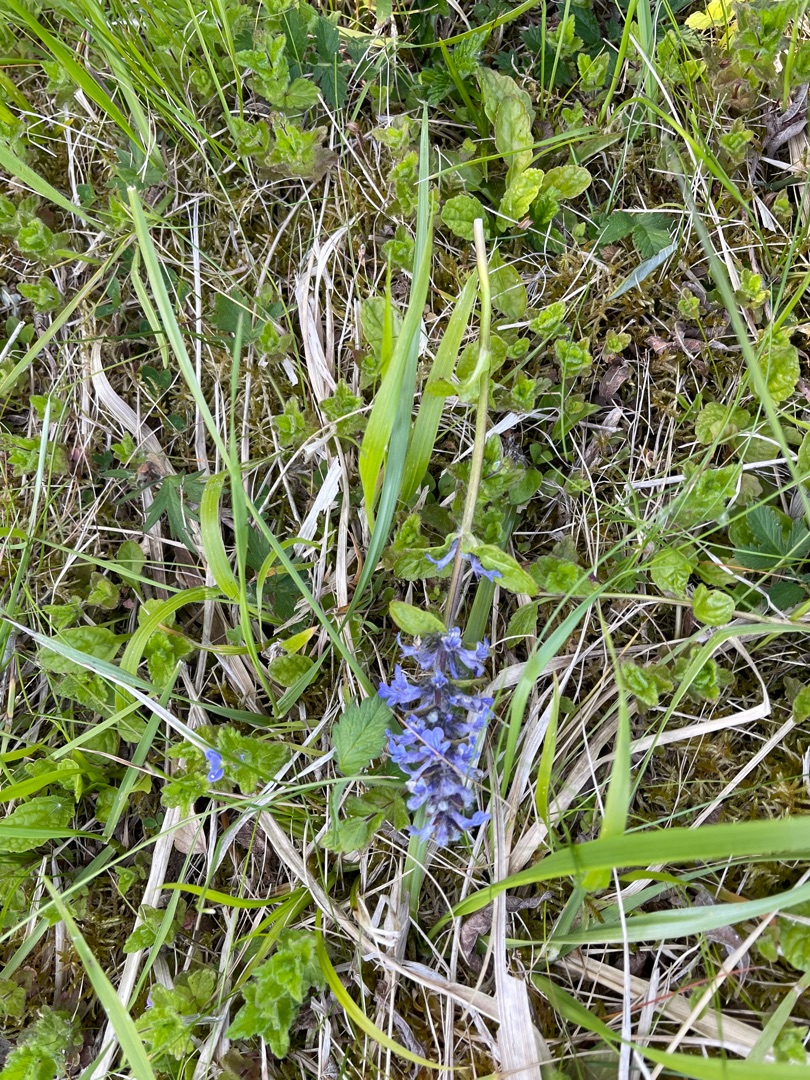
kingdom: Plantae
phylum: Tracheophyta
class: Magnoliopsida
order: Lamiales
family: Lamiaceae
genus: Ajuga
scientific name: Ajuga reptans
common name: Krybende læbeløs
